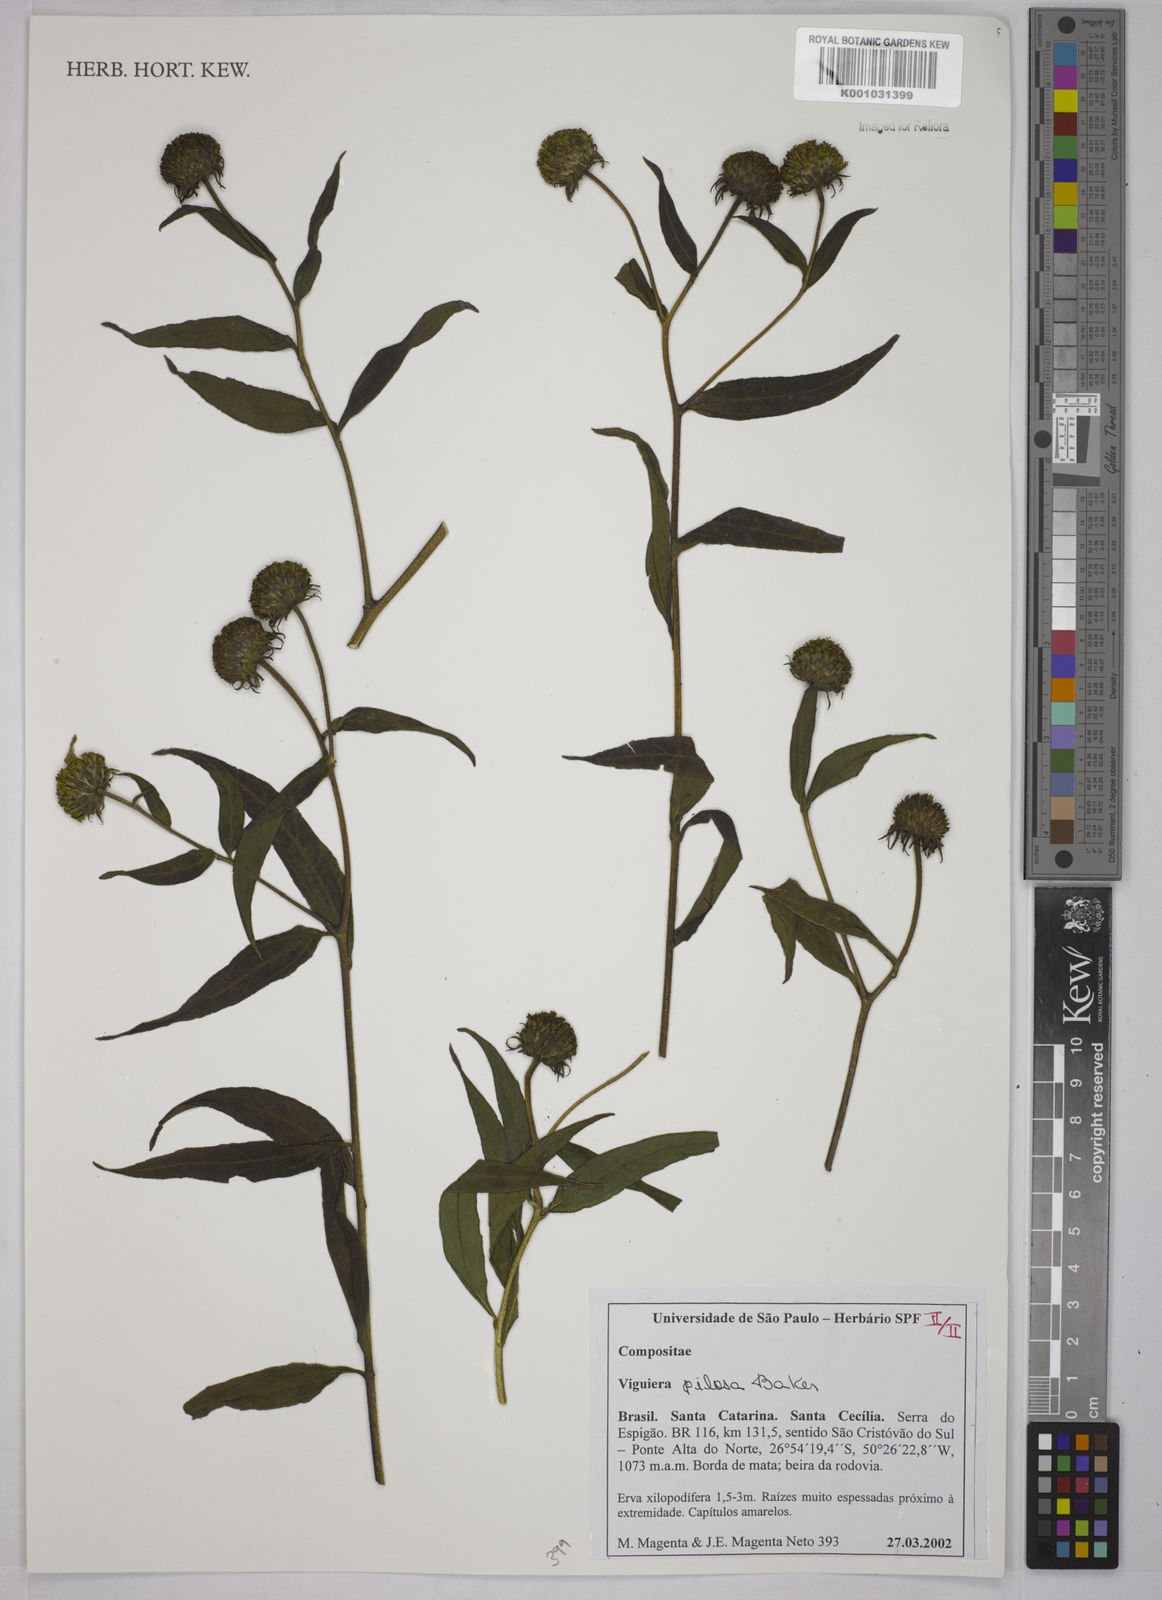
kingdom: Plantae
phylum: Tracheophyta
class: Magnoliopsida
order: Asterales
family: Asteraceae
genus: Aldama
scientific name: Aldama pilosa
